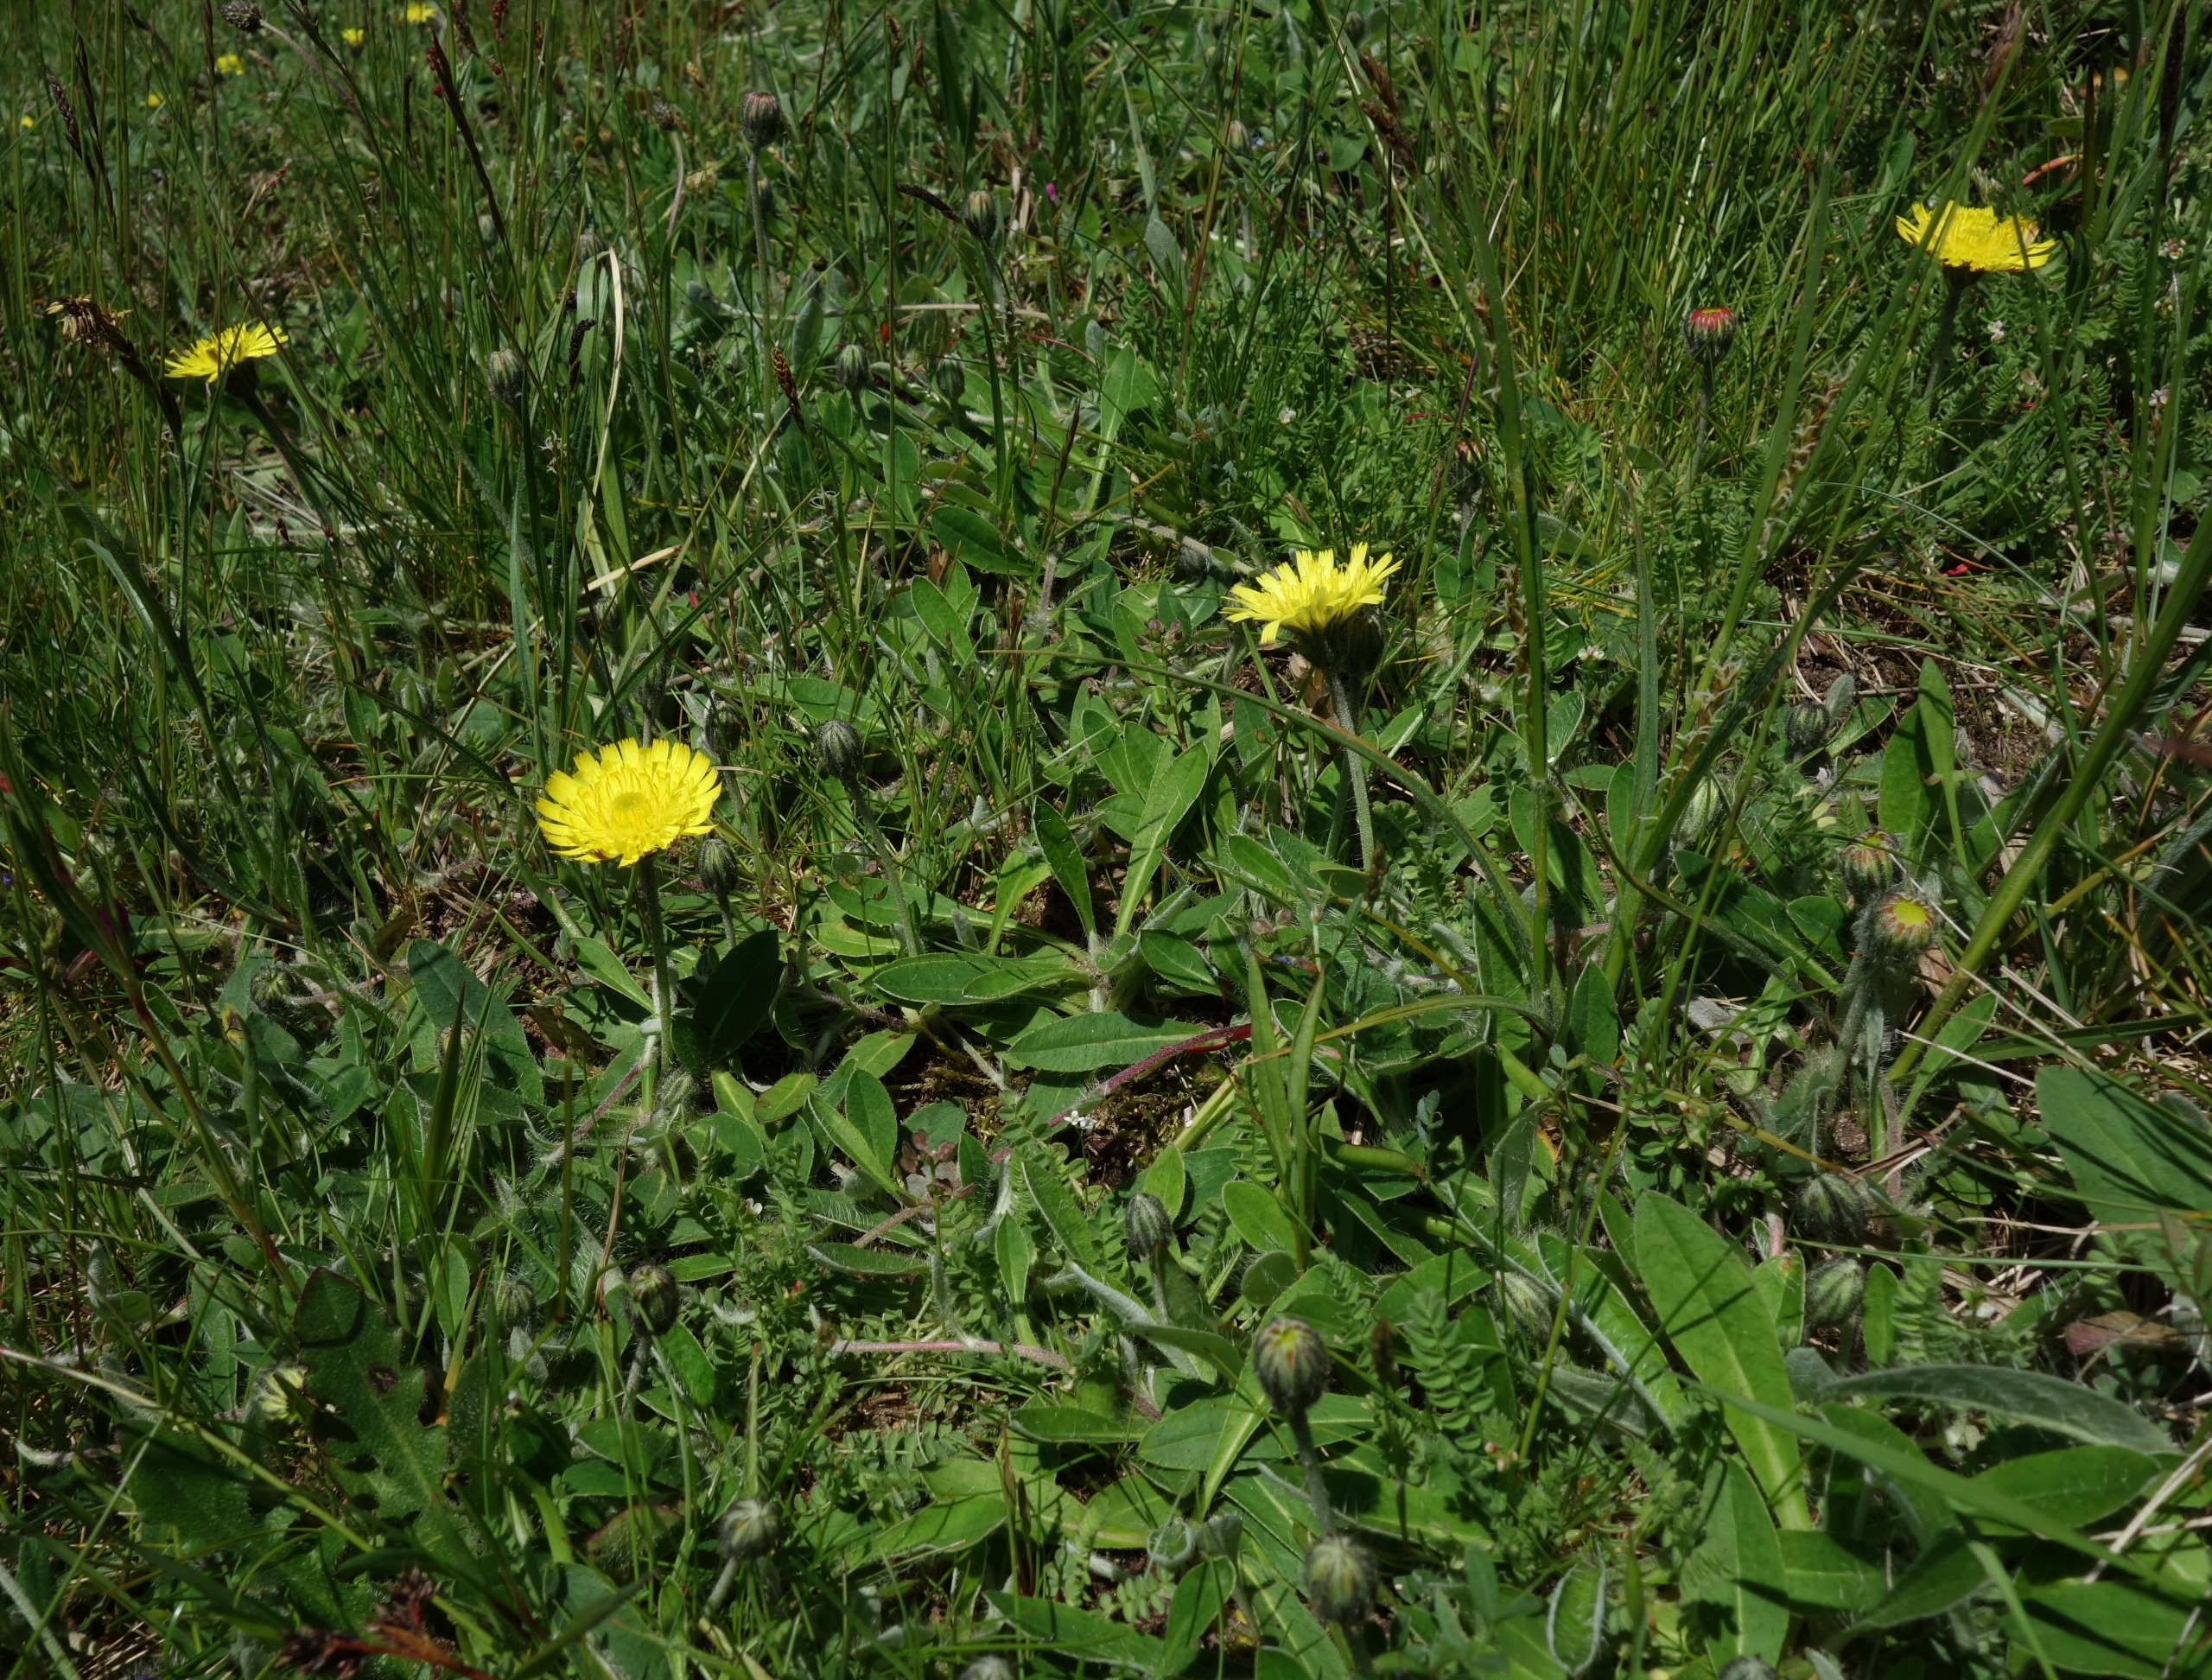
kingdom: Plantae
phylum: Tracheophyta
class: Magnoliopsida
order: Asterales
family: Asteraceae
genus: Pilosella
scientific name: Pilosella officinarum
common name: Håret høgeurt
